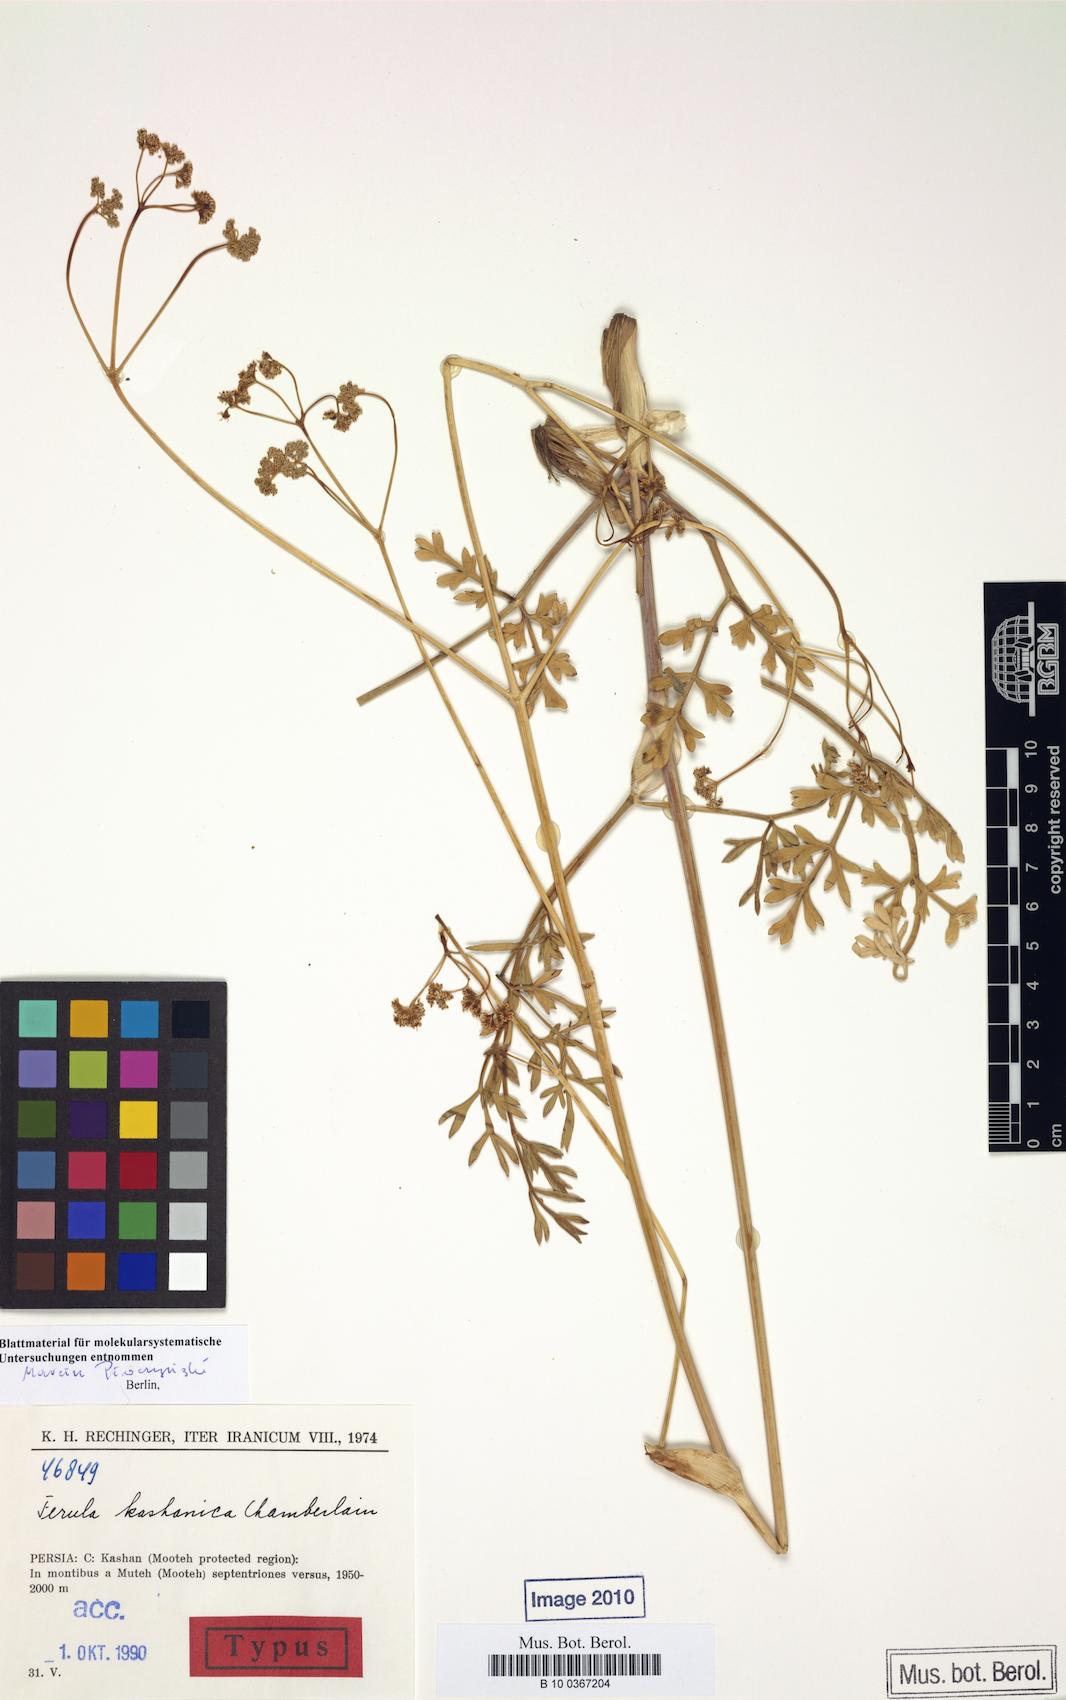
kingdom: Plantae
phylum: Tracheophyta
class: Magnoliopsida
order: Apiales
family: Apiaceae
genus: Ferula
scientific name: Ferula kashanica
